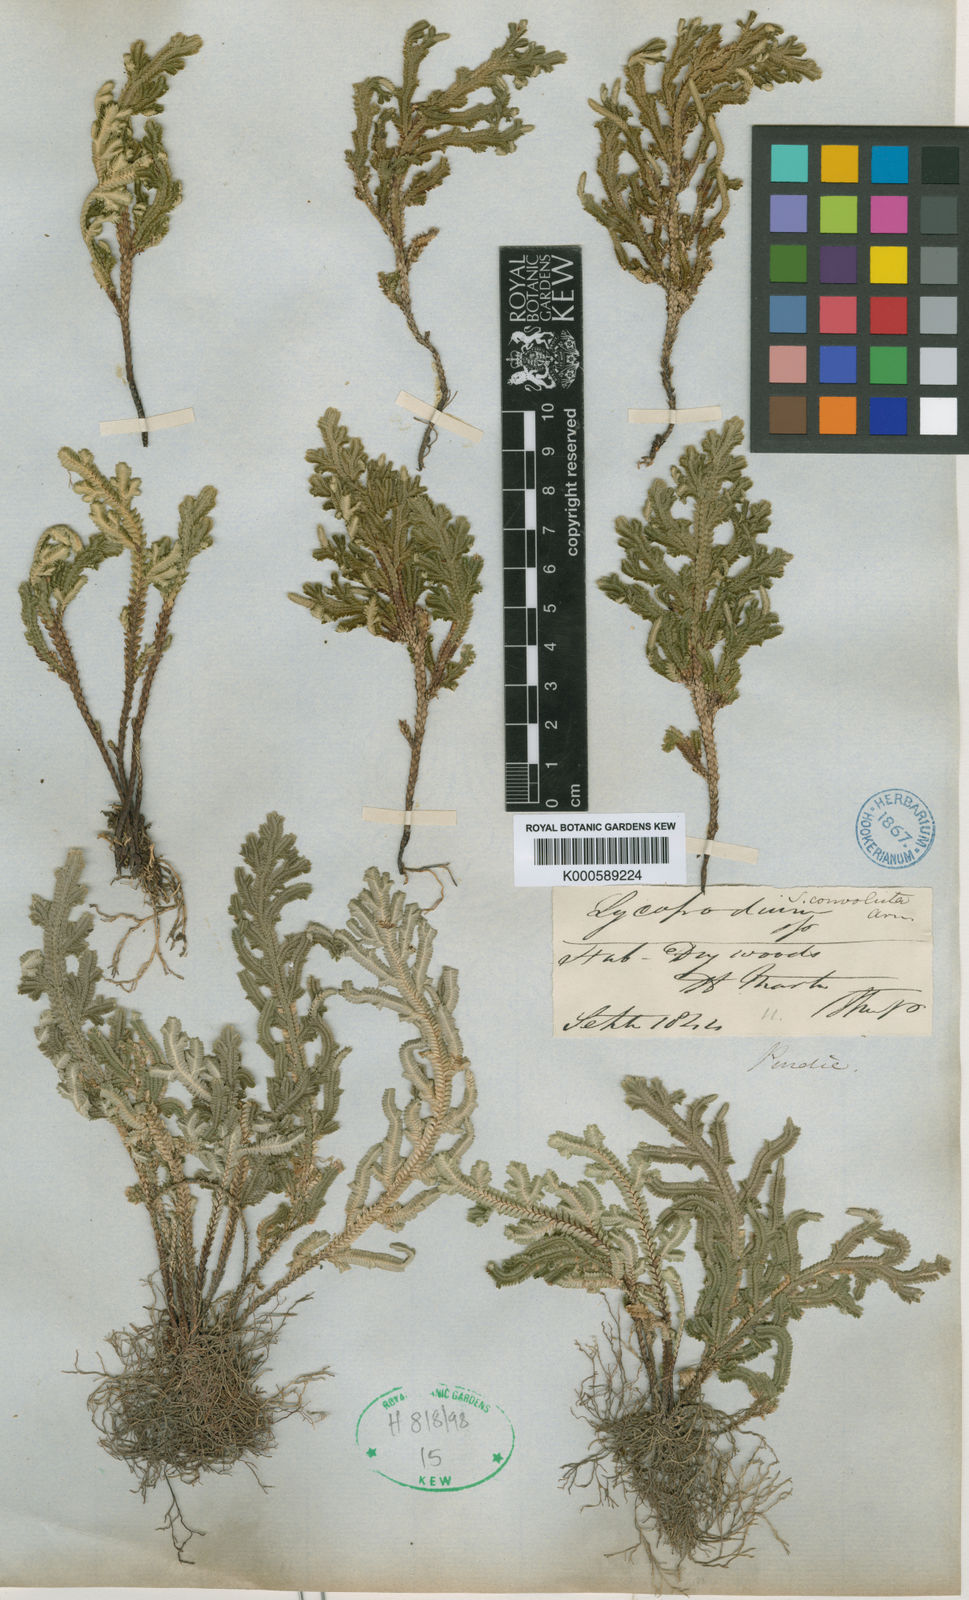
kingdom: Plantae
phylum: Tracheophyta
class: Lycopodiopsida
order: Selaginellales
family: Selaginellaceae
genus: Selaginella
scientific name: Selaginella convoluta
